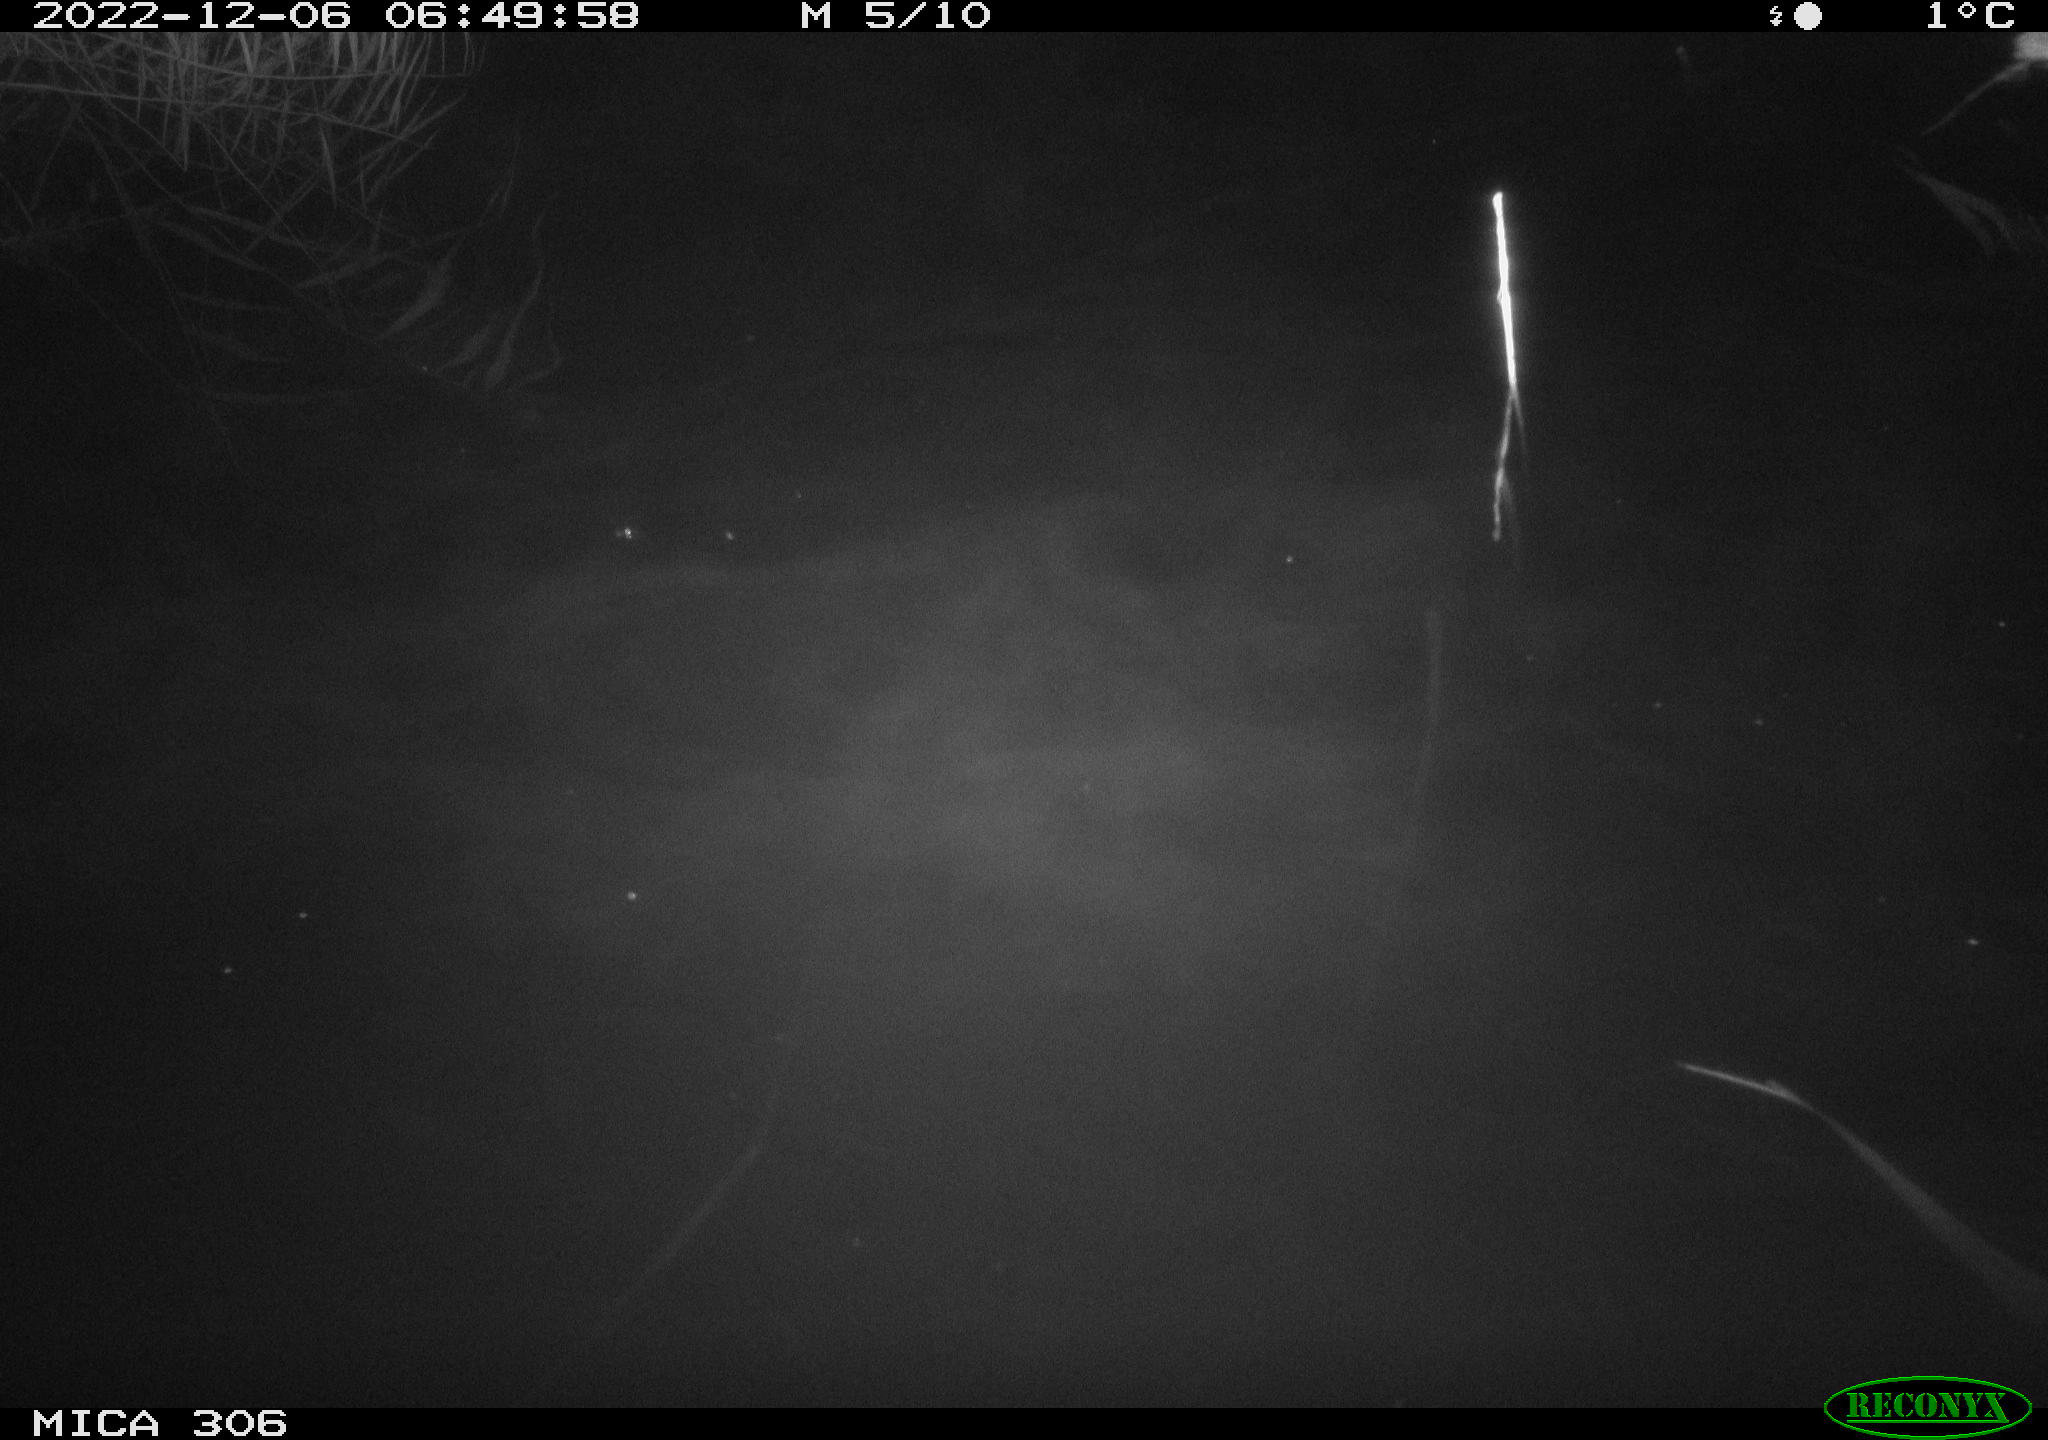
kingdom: Animalia
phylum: Chordata
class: Mammalia
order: Rodentia
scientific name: Rodentia
